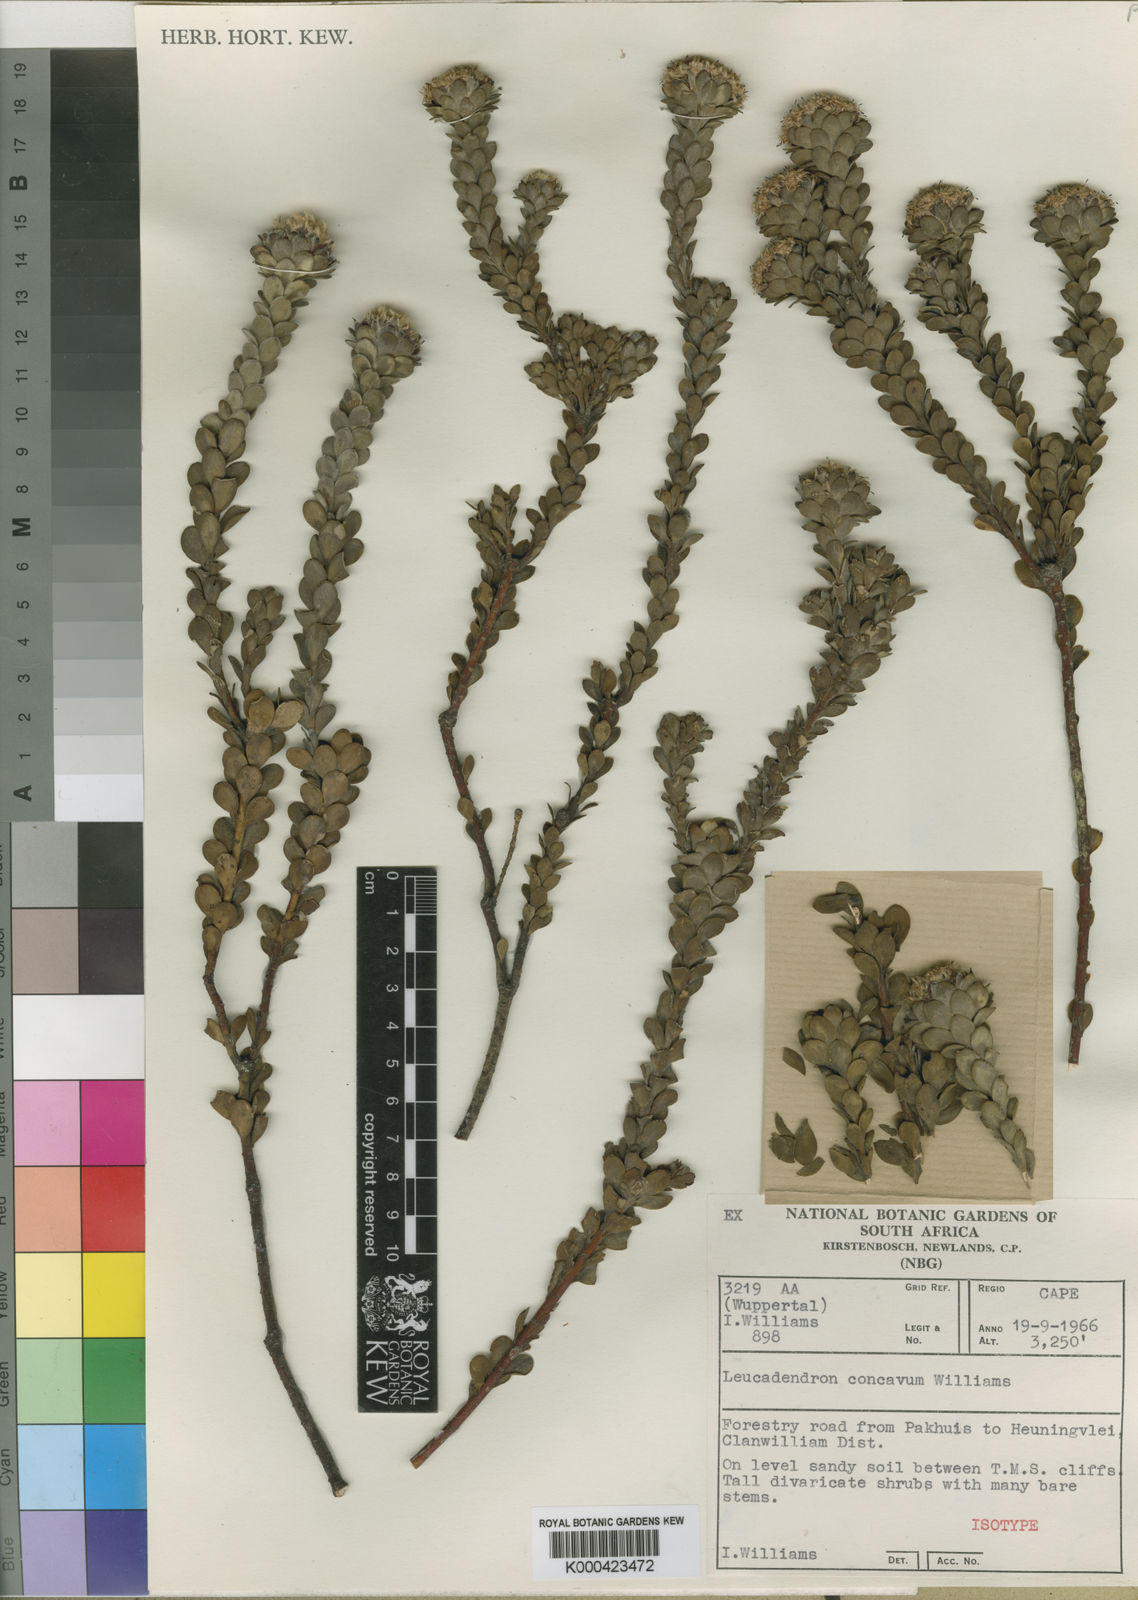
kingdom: Plantae
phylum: Tracheophyta
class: Magnoliopsida
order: Proteales
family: Proteaceae
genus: Leucadendron
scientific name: Leucadendron concavum
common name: Pakhuis conebush
